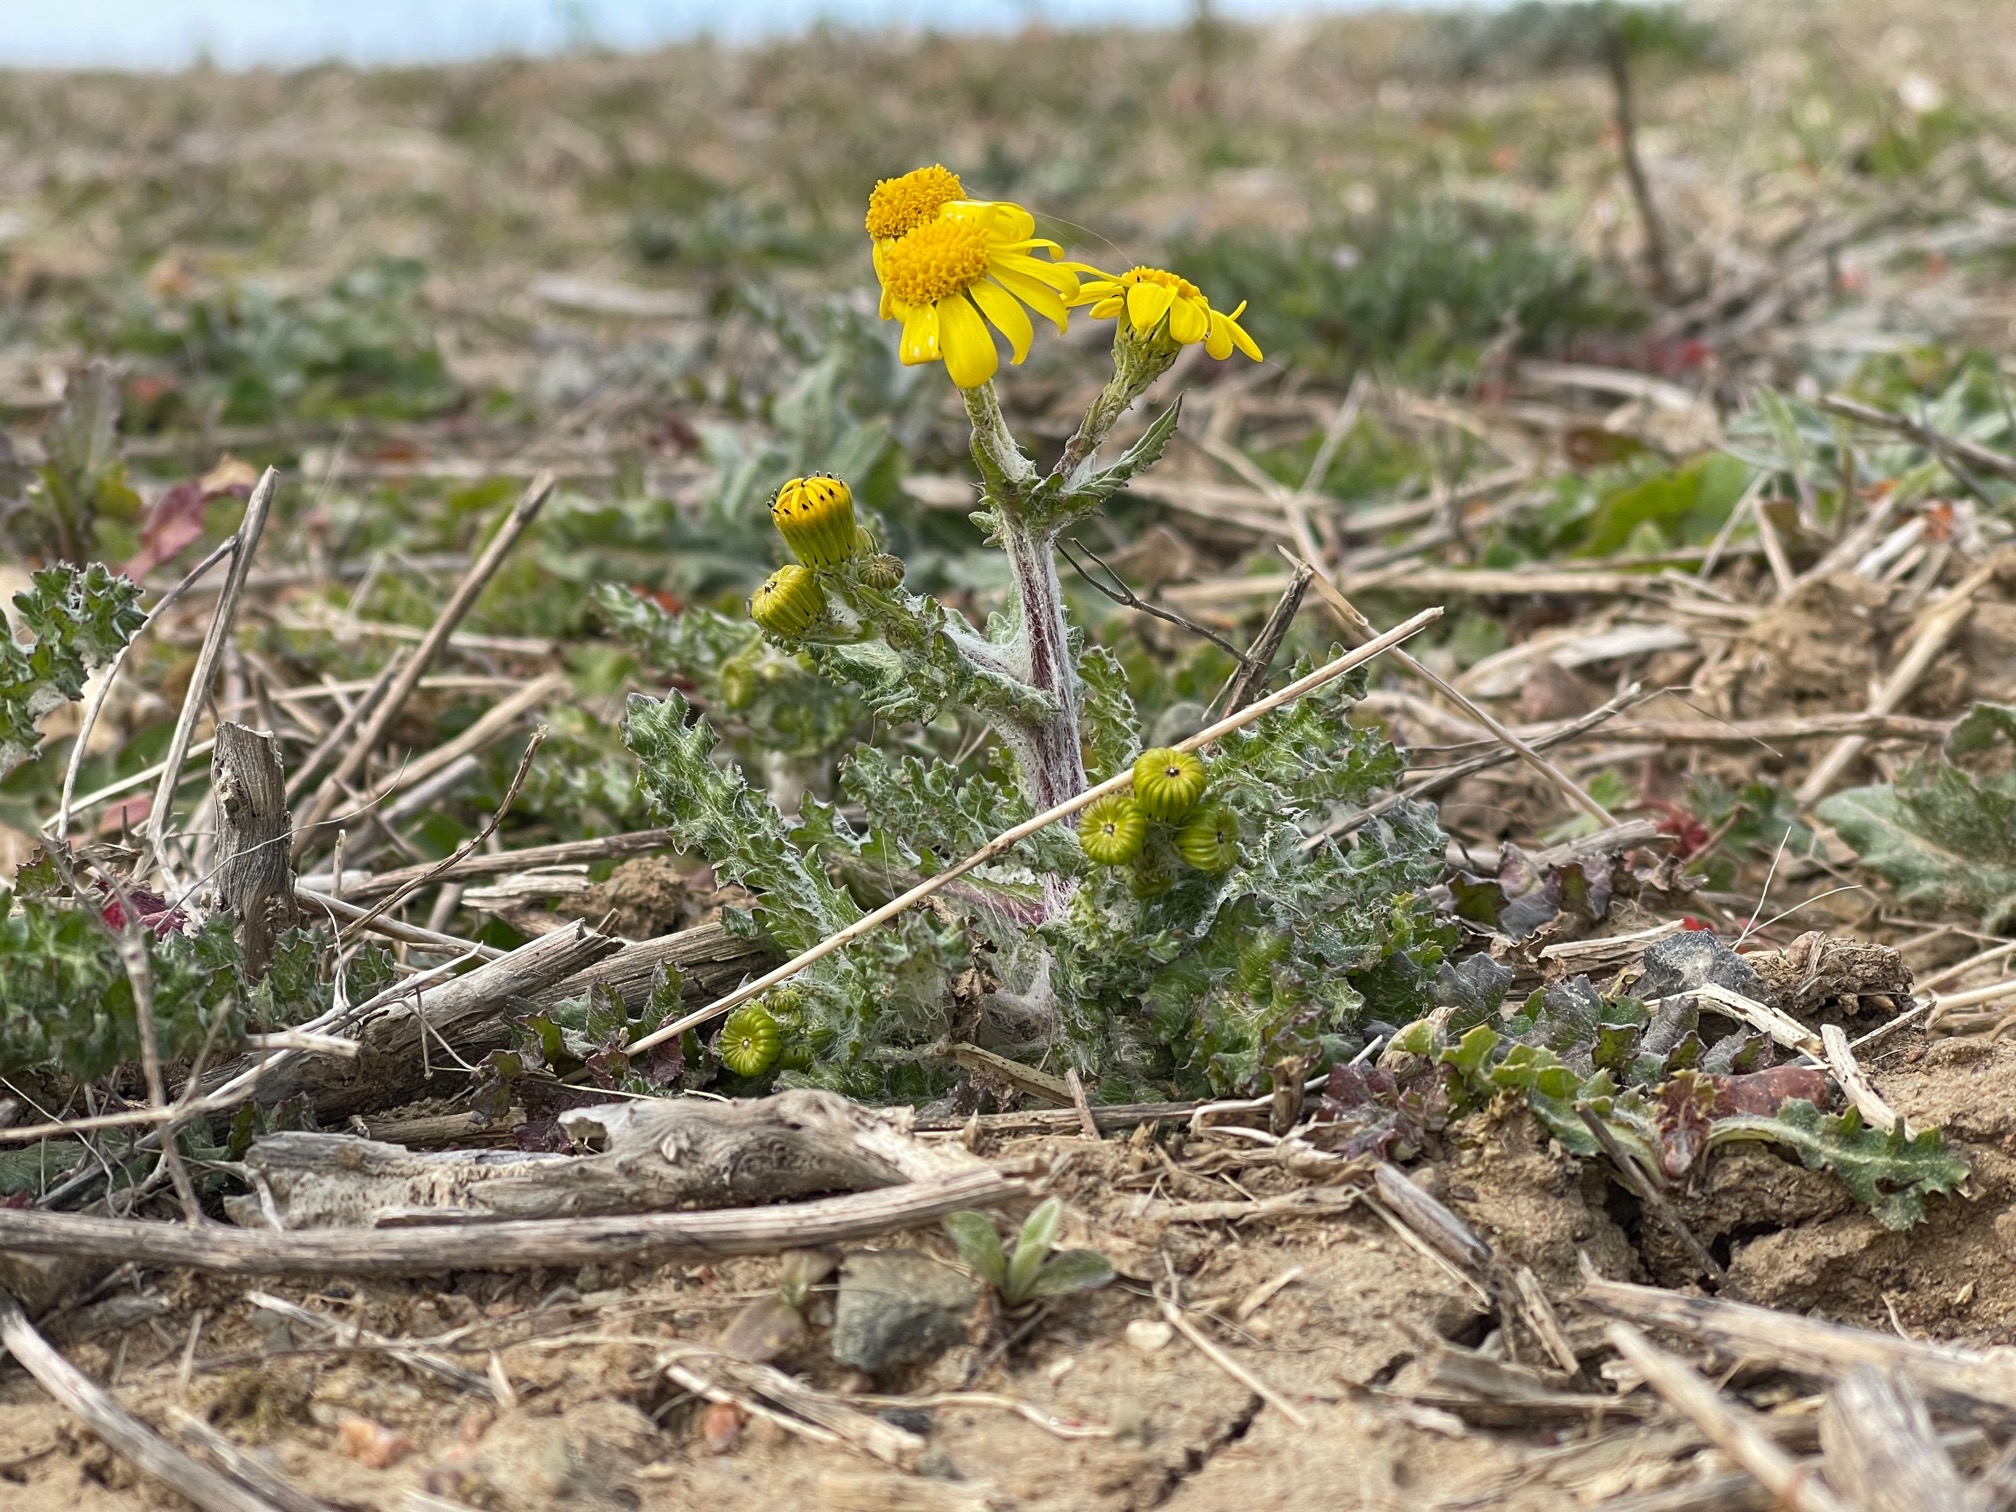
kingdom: Plantae
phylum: Tracheophyta
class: Magnoliopsida
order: Asterales
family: Asteraceae
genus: Senecio
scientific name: Senecio leucanthemifolius
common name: Vår-brandbæger
